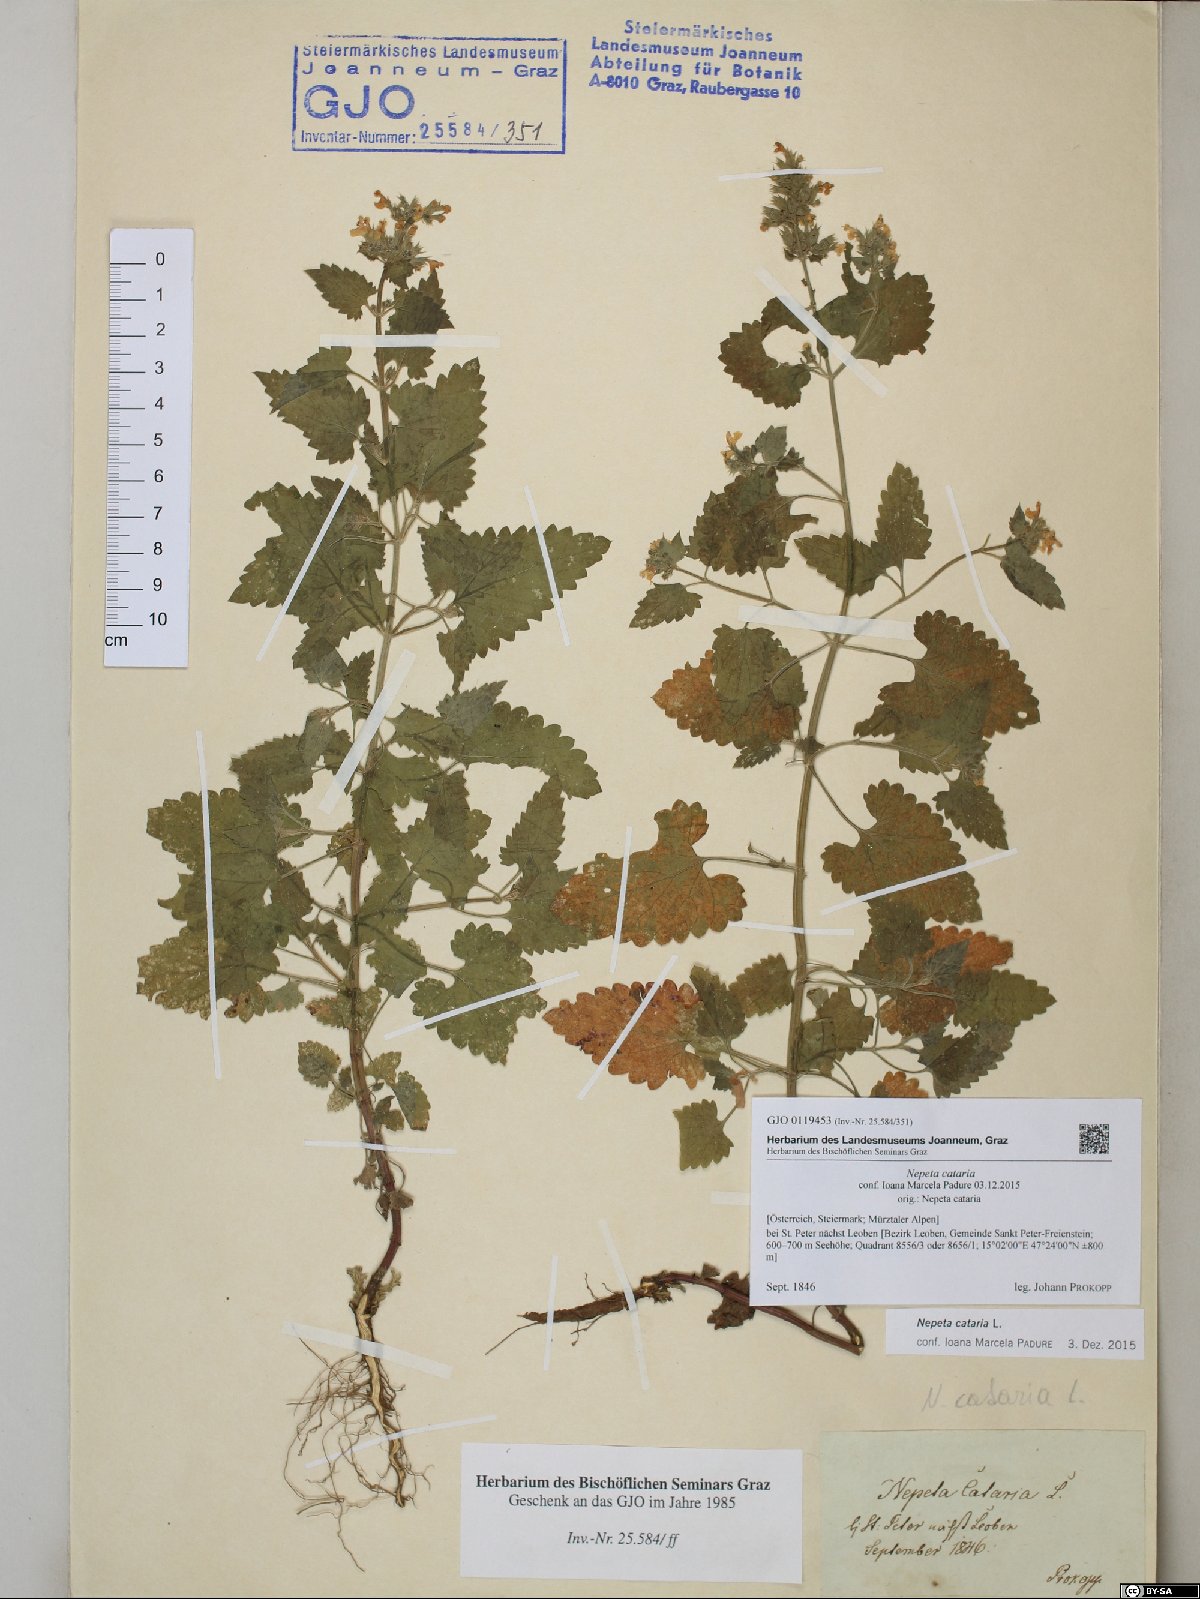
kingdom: Plantae
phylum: Tracheophyta
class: Magnoliopsida
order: Lamiales
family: Lamiaceae
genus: Nepeta
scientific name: Nepeta cataria
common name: Catnip
